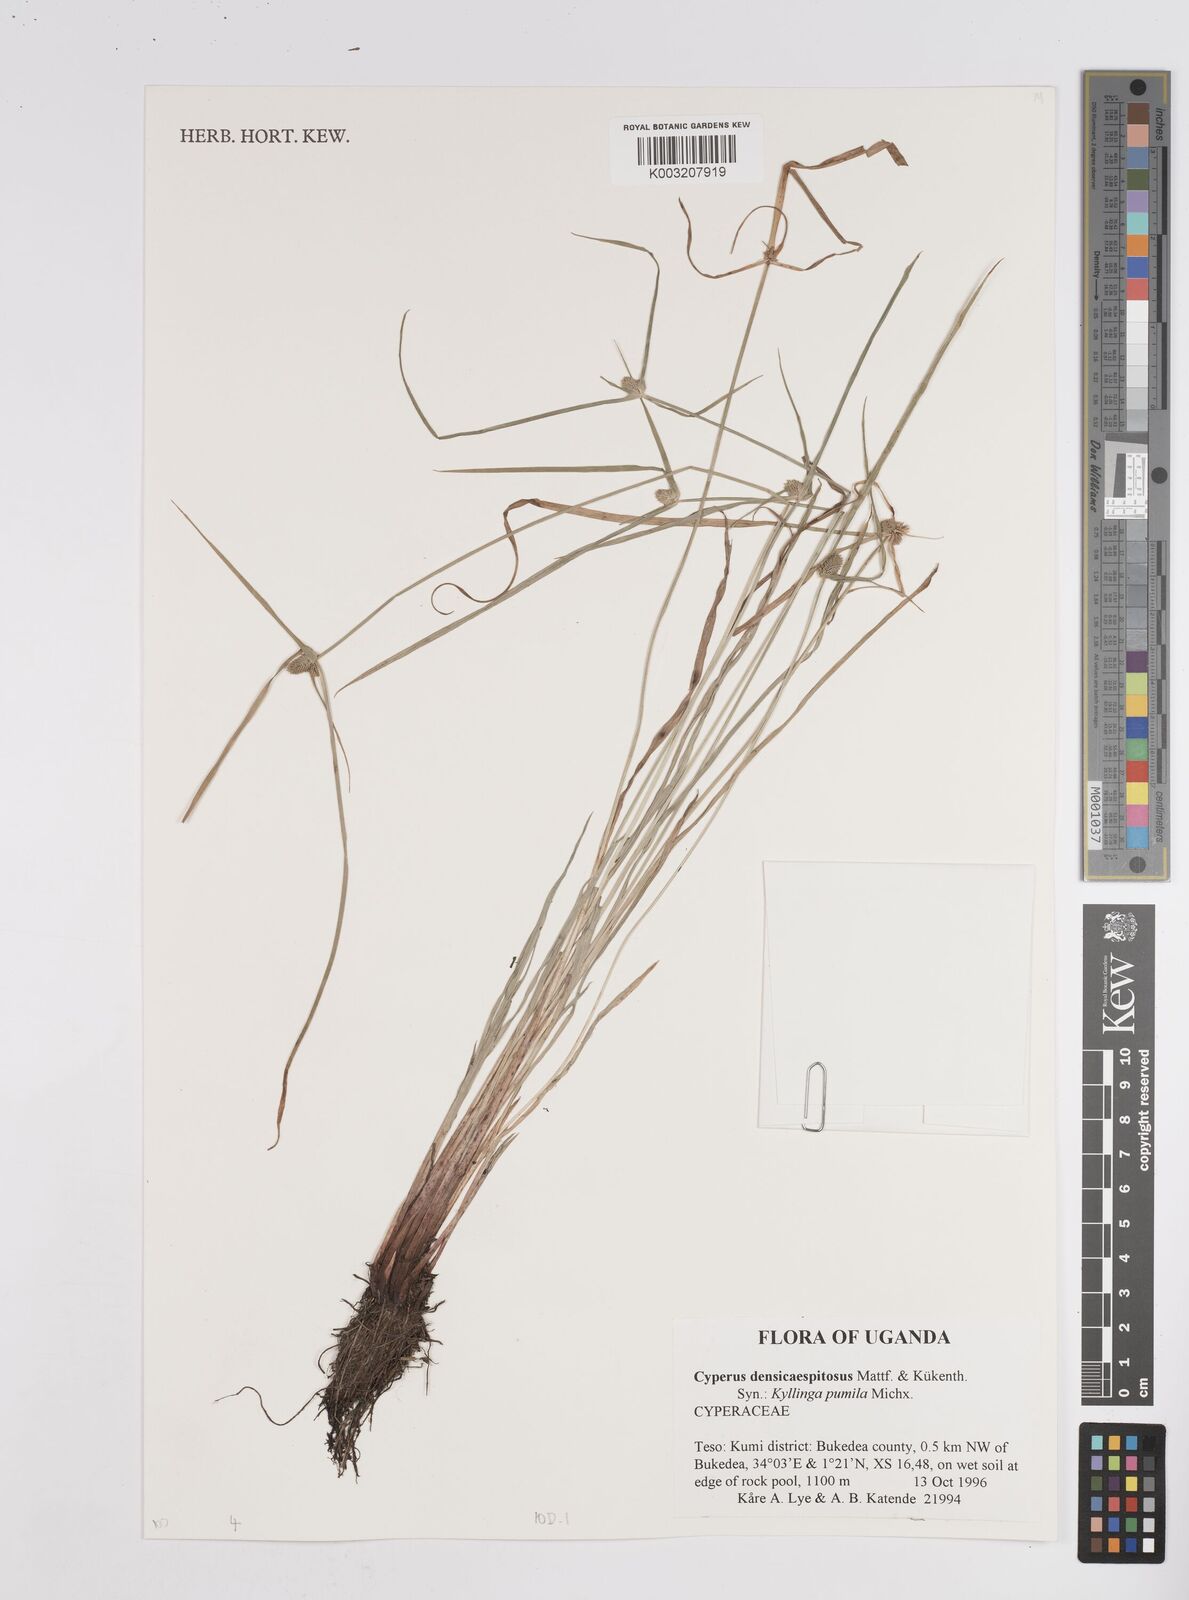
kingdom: Plantae
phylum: Tracheophyta
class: Liliopsida
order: Poales
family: Cyperaceae
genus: Cyperus
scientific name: Cyperus
